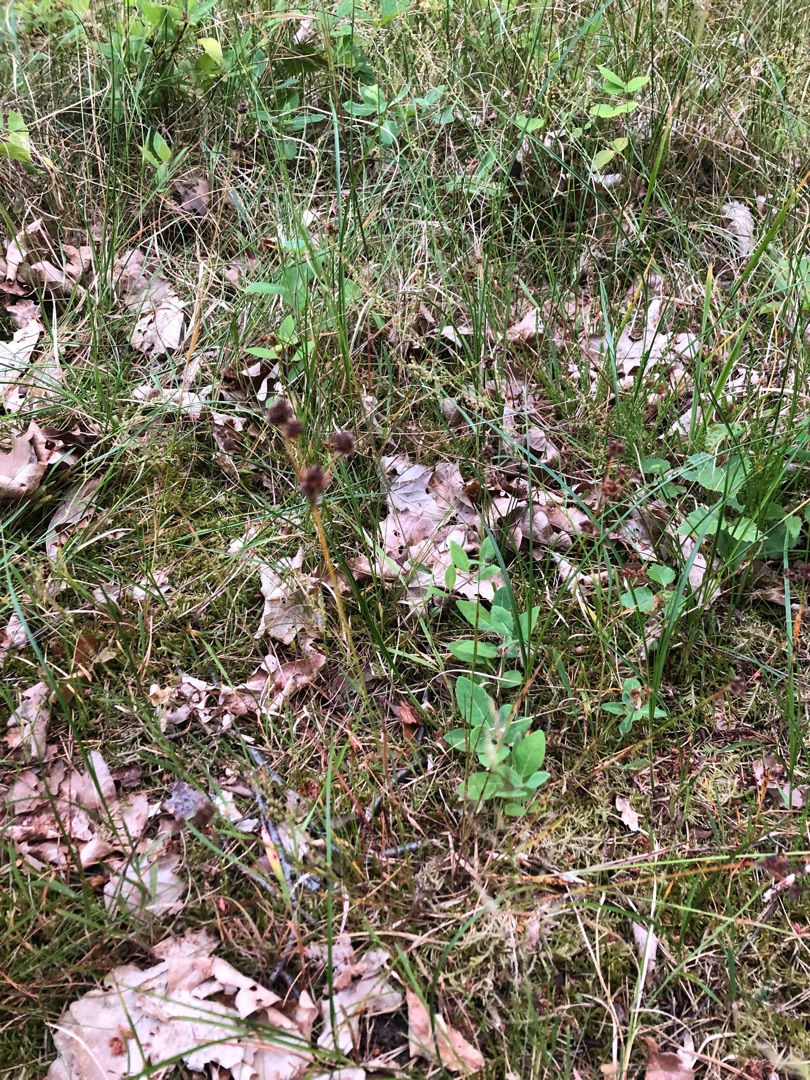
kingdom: Plantae
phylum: Tracheophyta
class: Liliopsida
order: Poales
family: Juncaceae
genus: Luzula
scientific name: Luzula multiflora
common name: Mangeblomstret frytle
